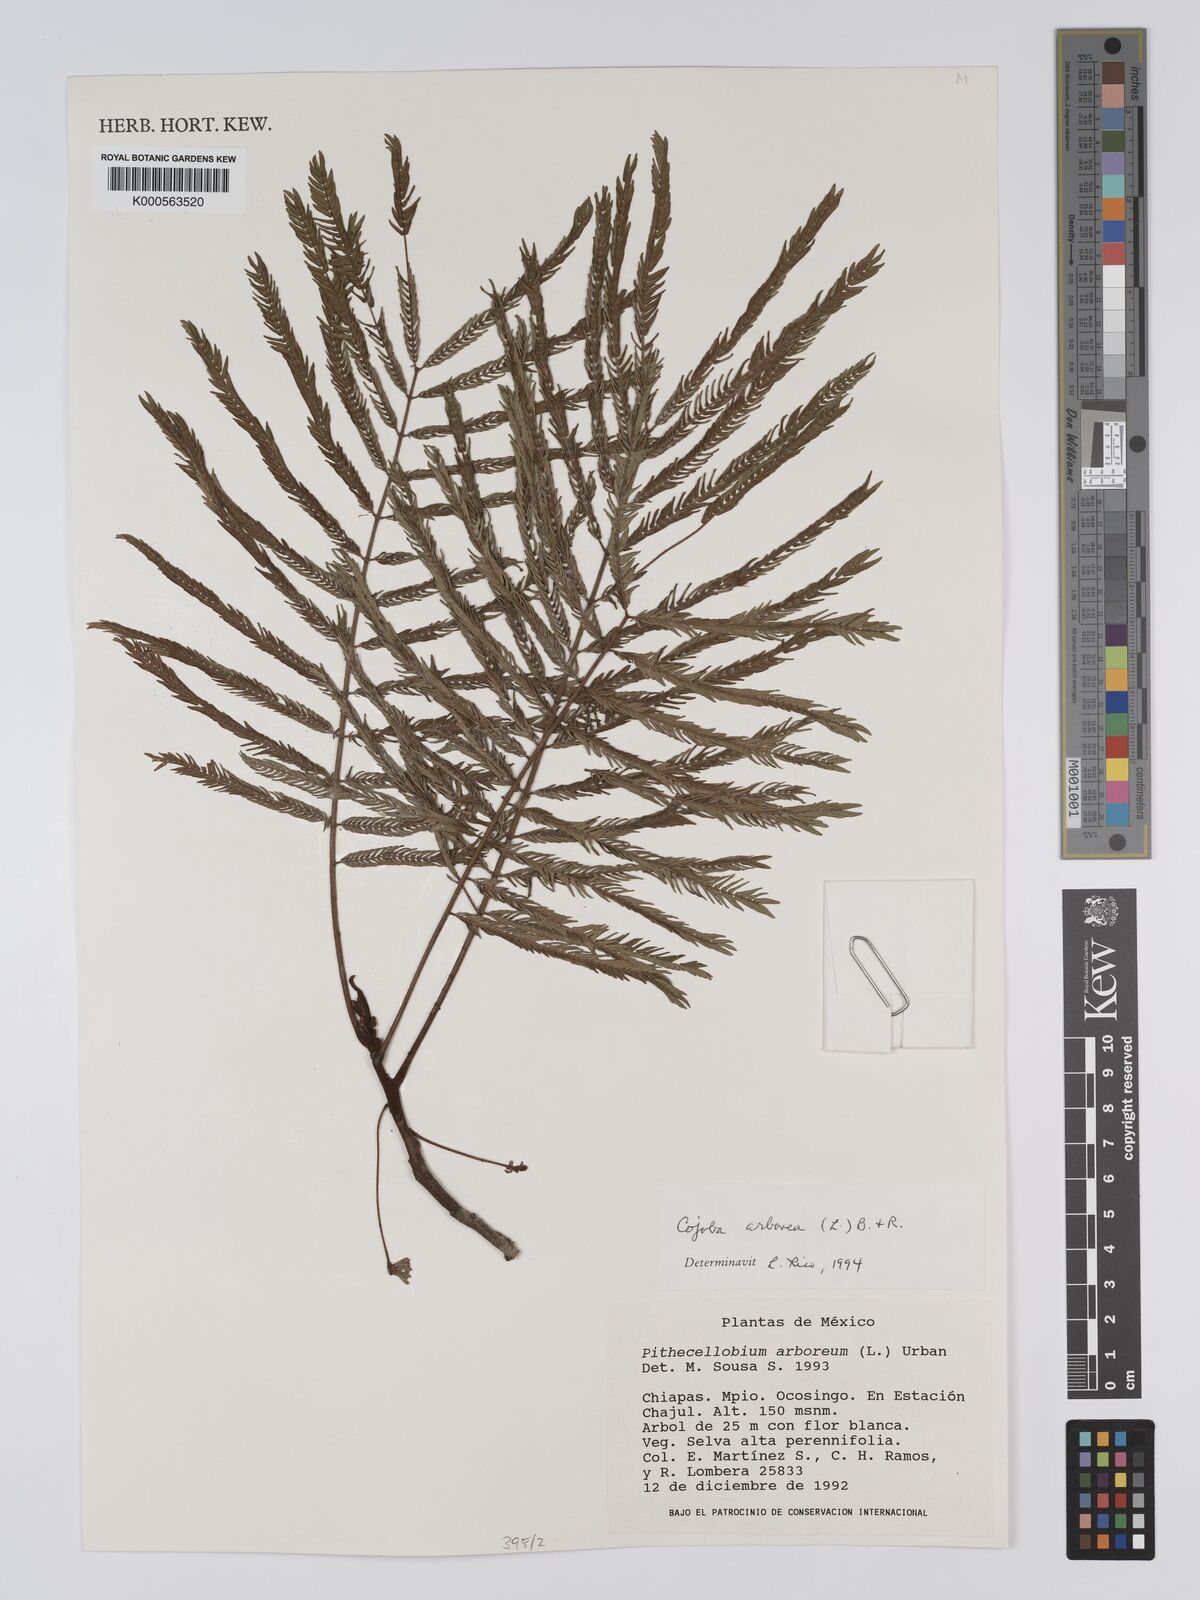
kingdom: Plantae
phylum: Tracheophyta
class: Magnoliopsida
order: Fabales
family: Fabaceae
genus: Cojoba
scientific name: Cojoba arborea
